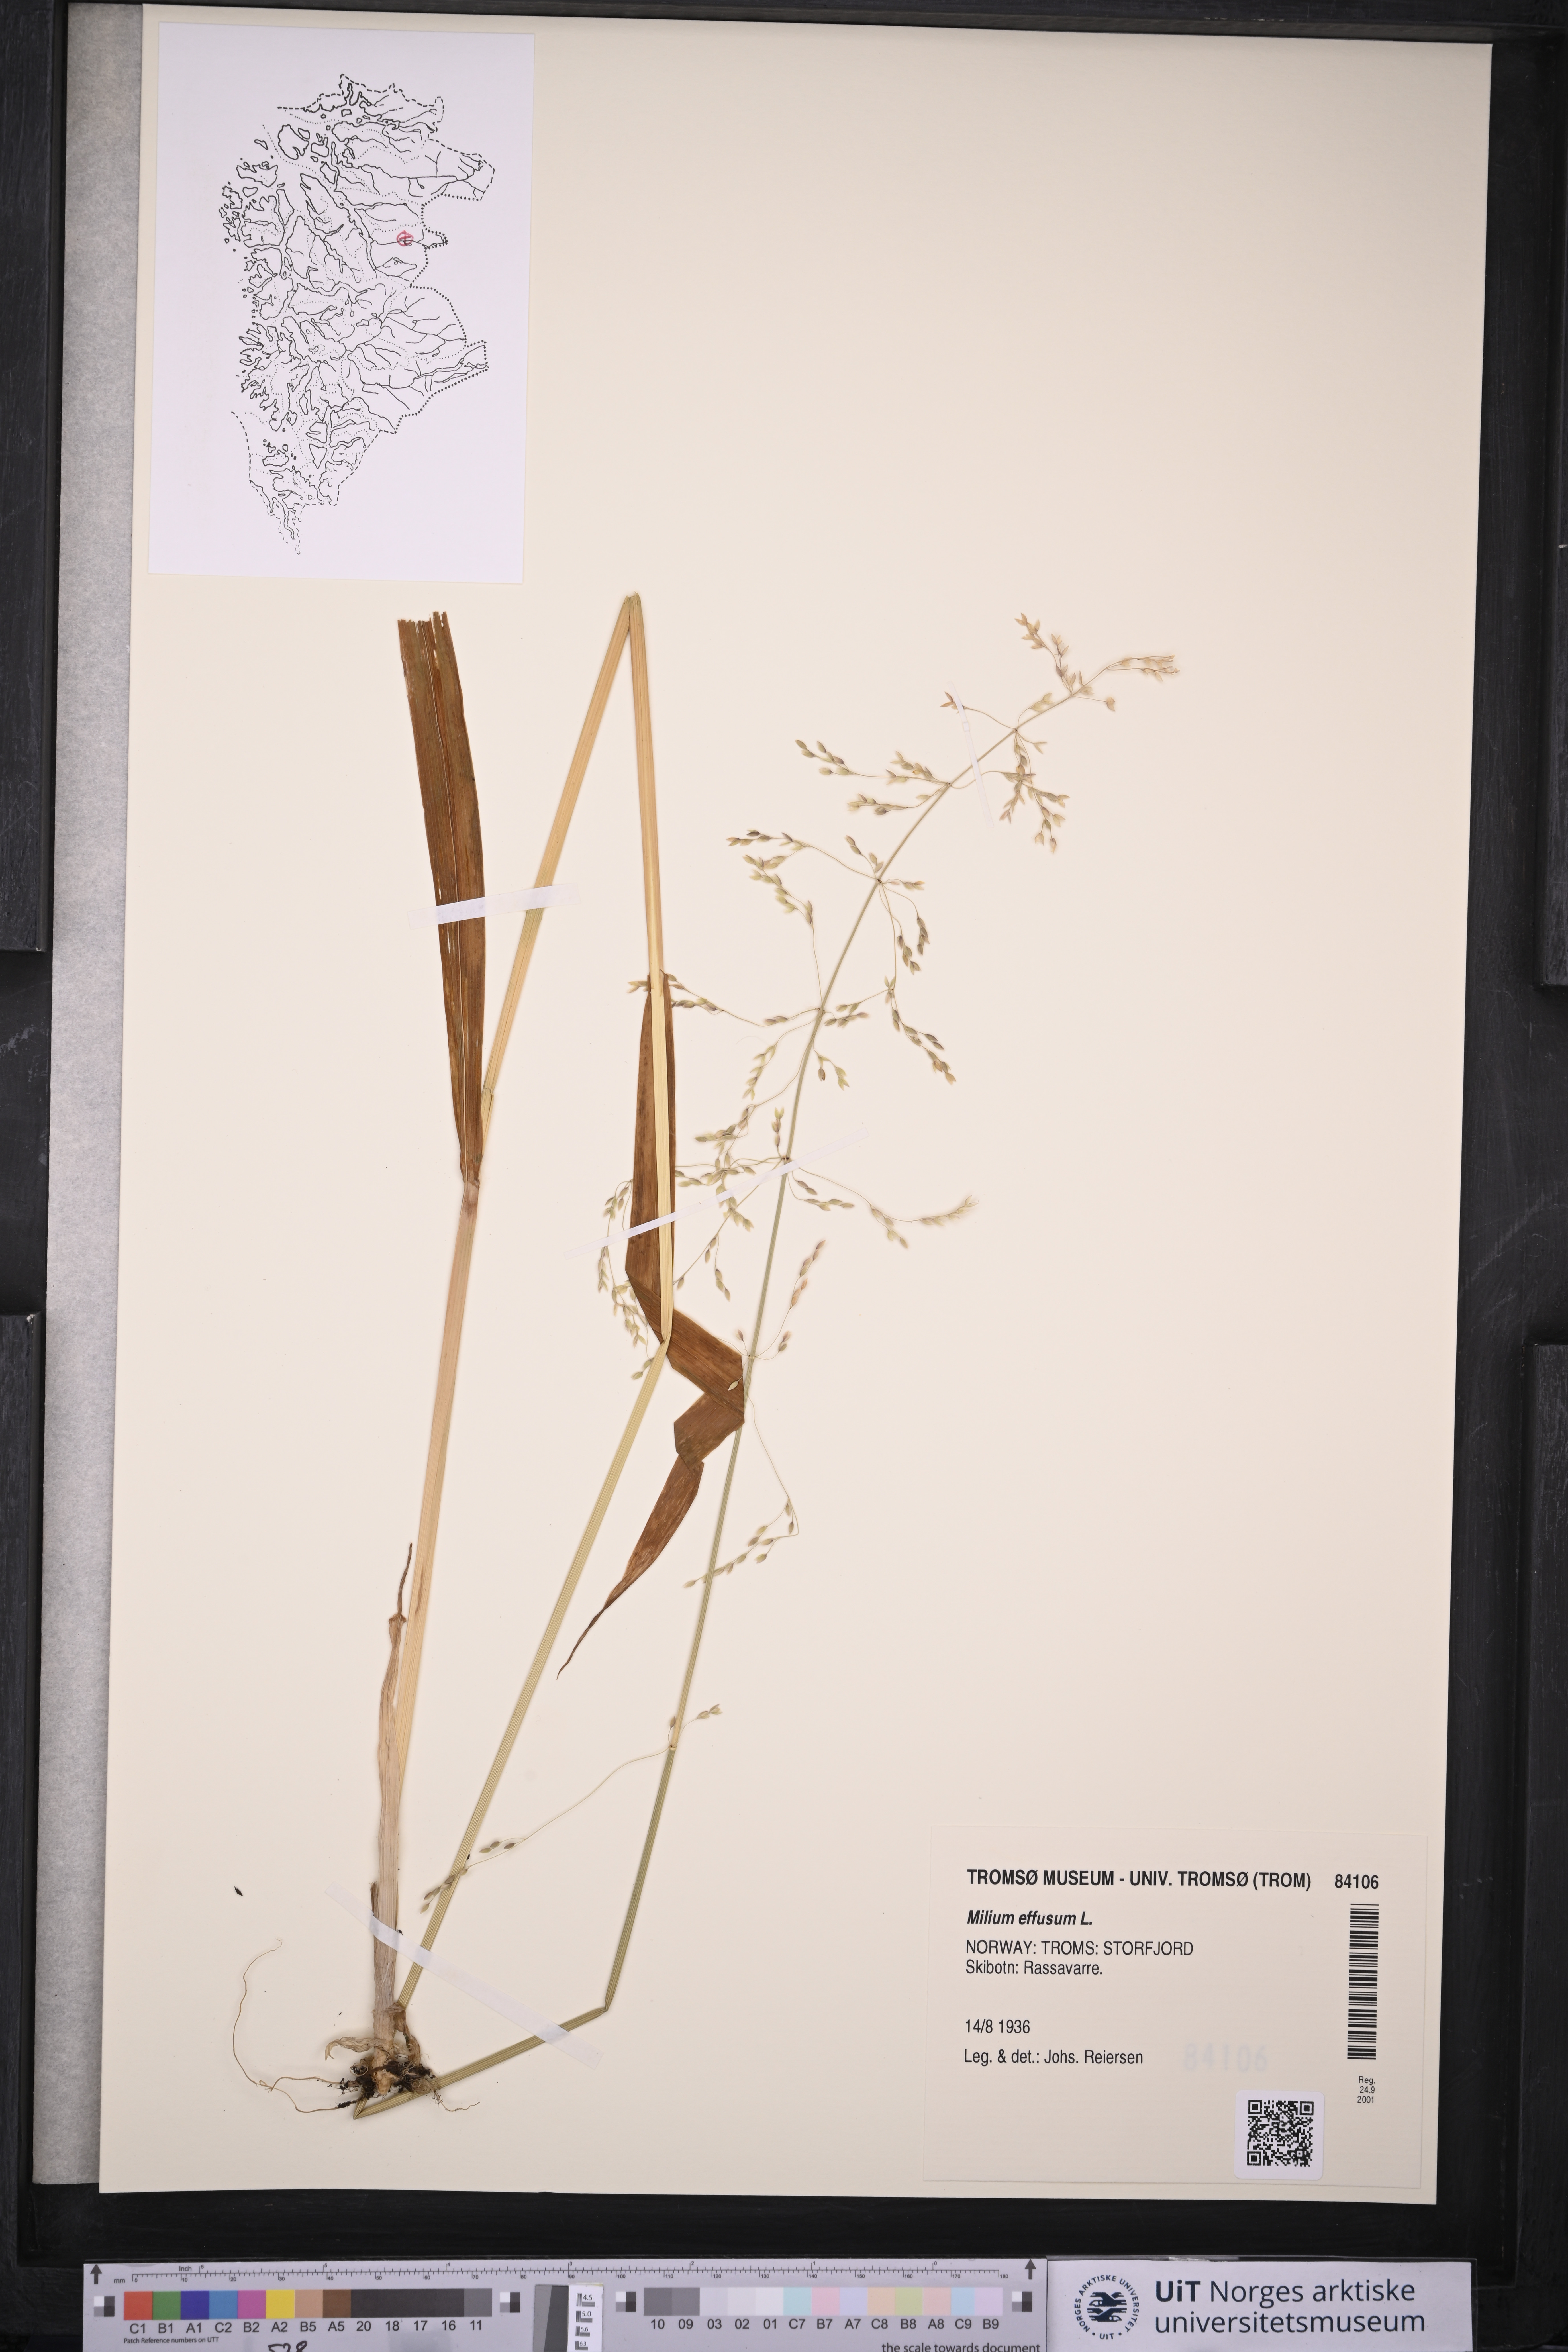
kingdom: Plantae
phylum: Tracheophyta
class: Liliopsida
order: Poales
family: Poaceae
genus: Milium
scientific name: Milium effusum
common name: Wood millet
